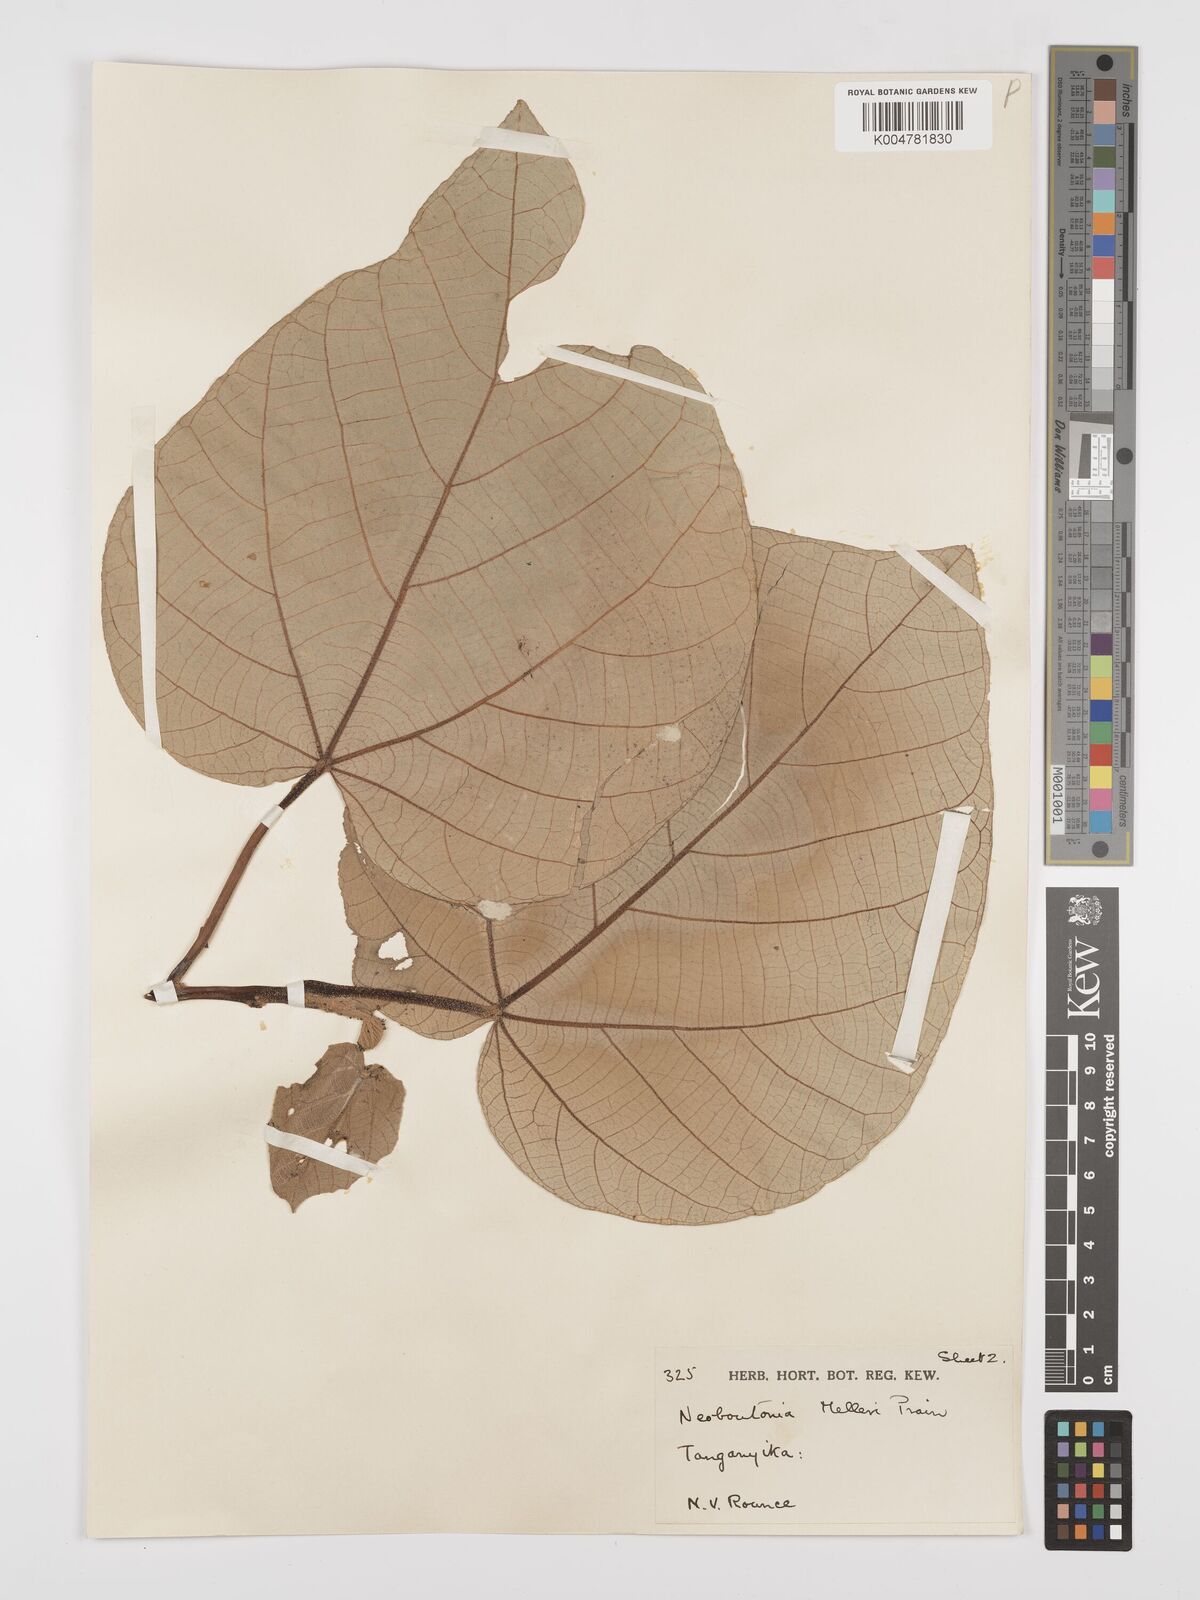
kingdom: Plantae
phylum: Tracheophyta
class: Magnoliopsida
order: Malpighiales
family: Euphorbiaceae
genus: Neoboutonia
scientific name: Neoboutonia melleri
